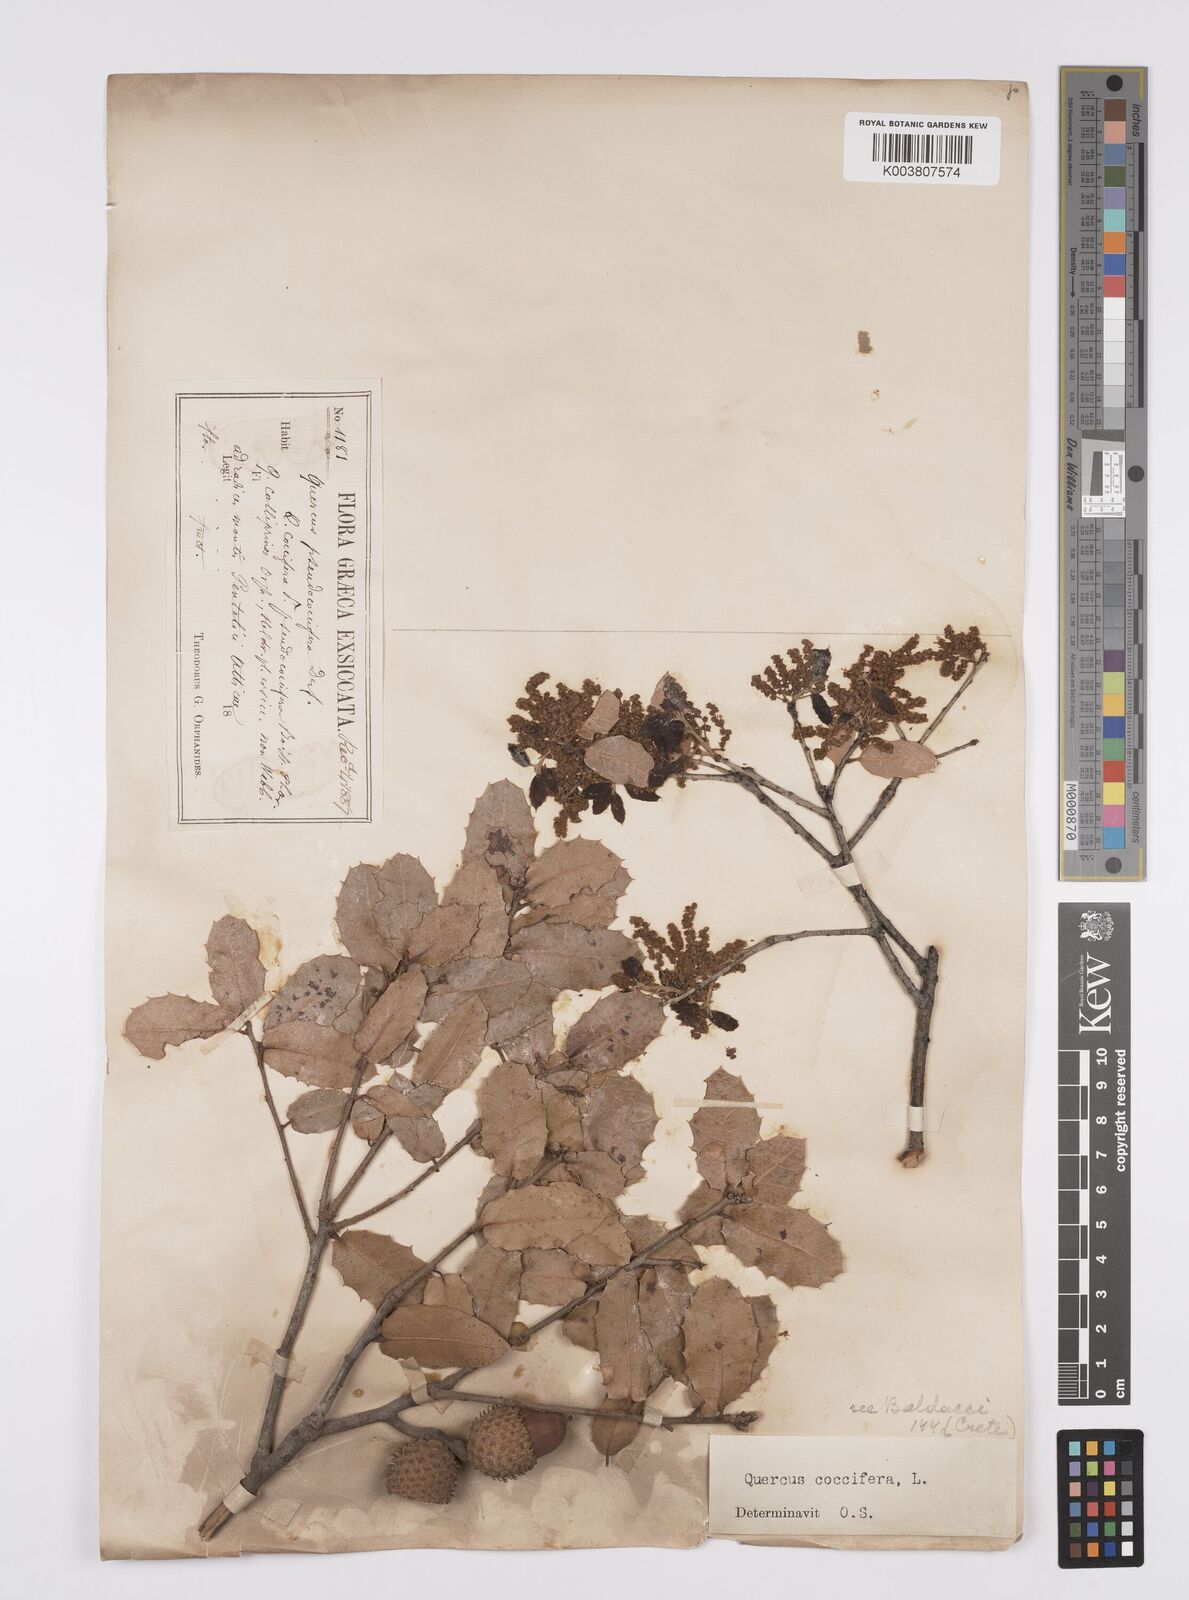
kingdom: Plantae
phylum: Tracheophyta
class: Magnoliopsida
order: Fagales
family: Fagaceae
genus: Quercus
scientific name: Quercus coccifera
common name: Kermes oak
